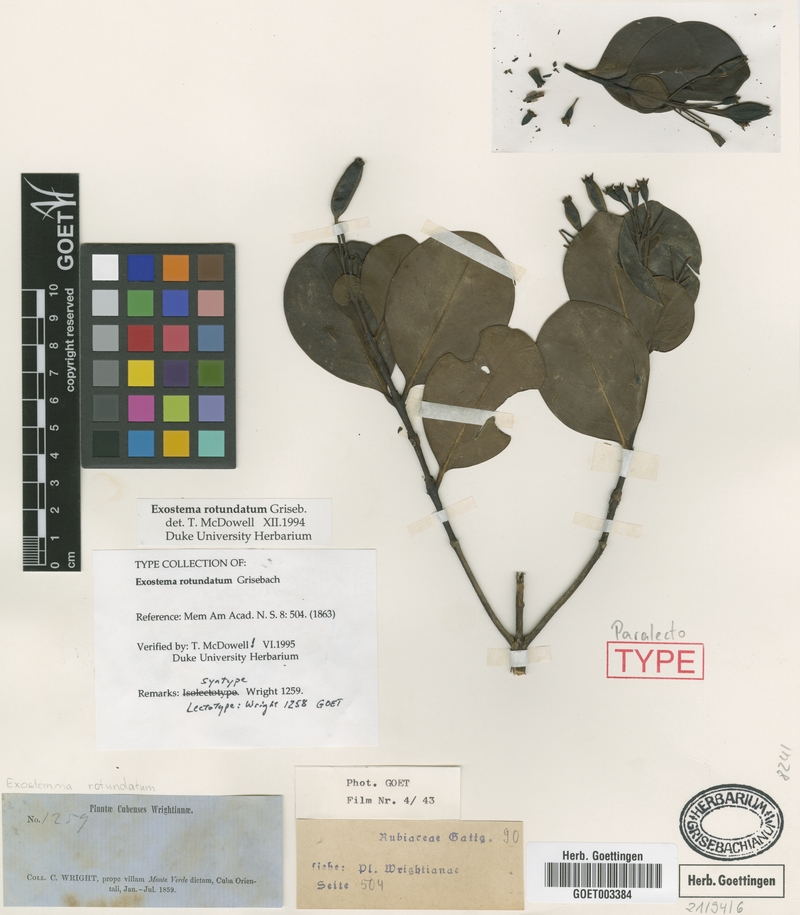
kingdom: Plantae
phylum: Tracheophyta
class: Magnoliopsida
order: Gentianales
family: Rubiaceae
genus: Solenandra
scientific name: Solenandra rotundata
